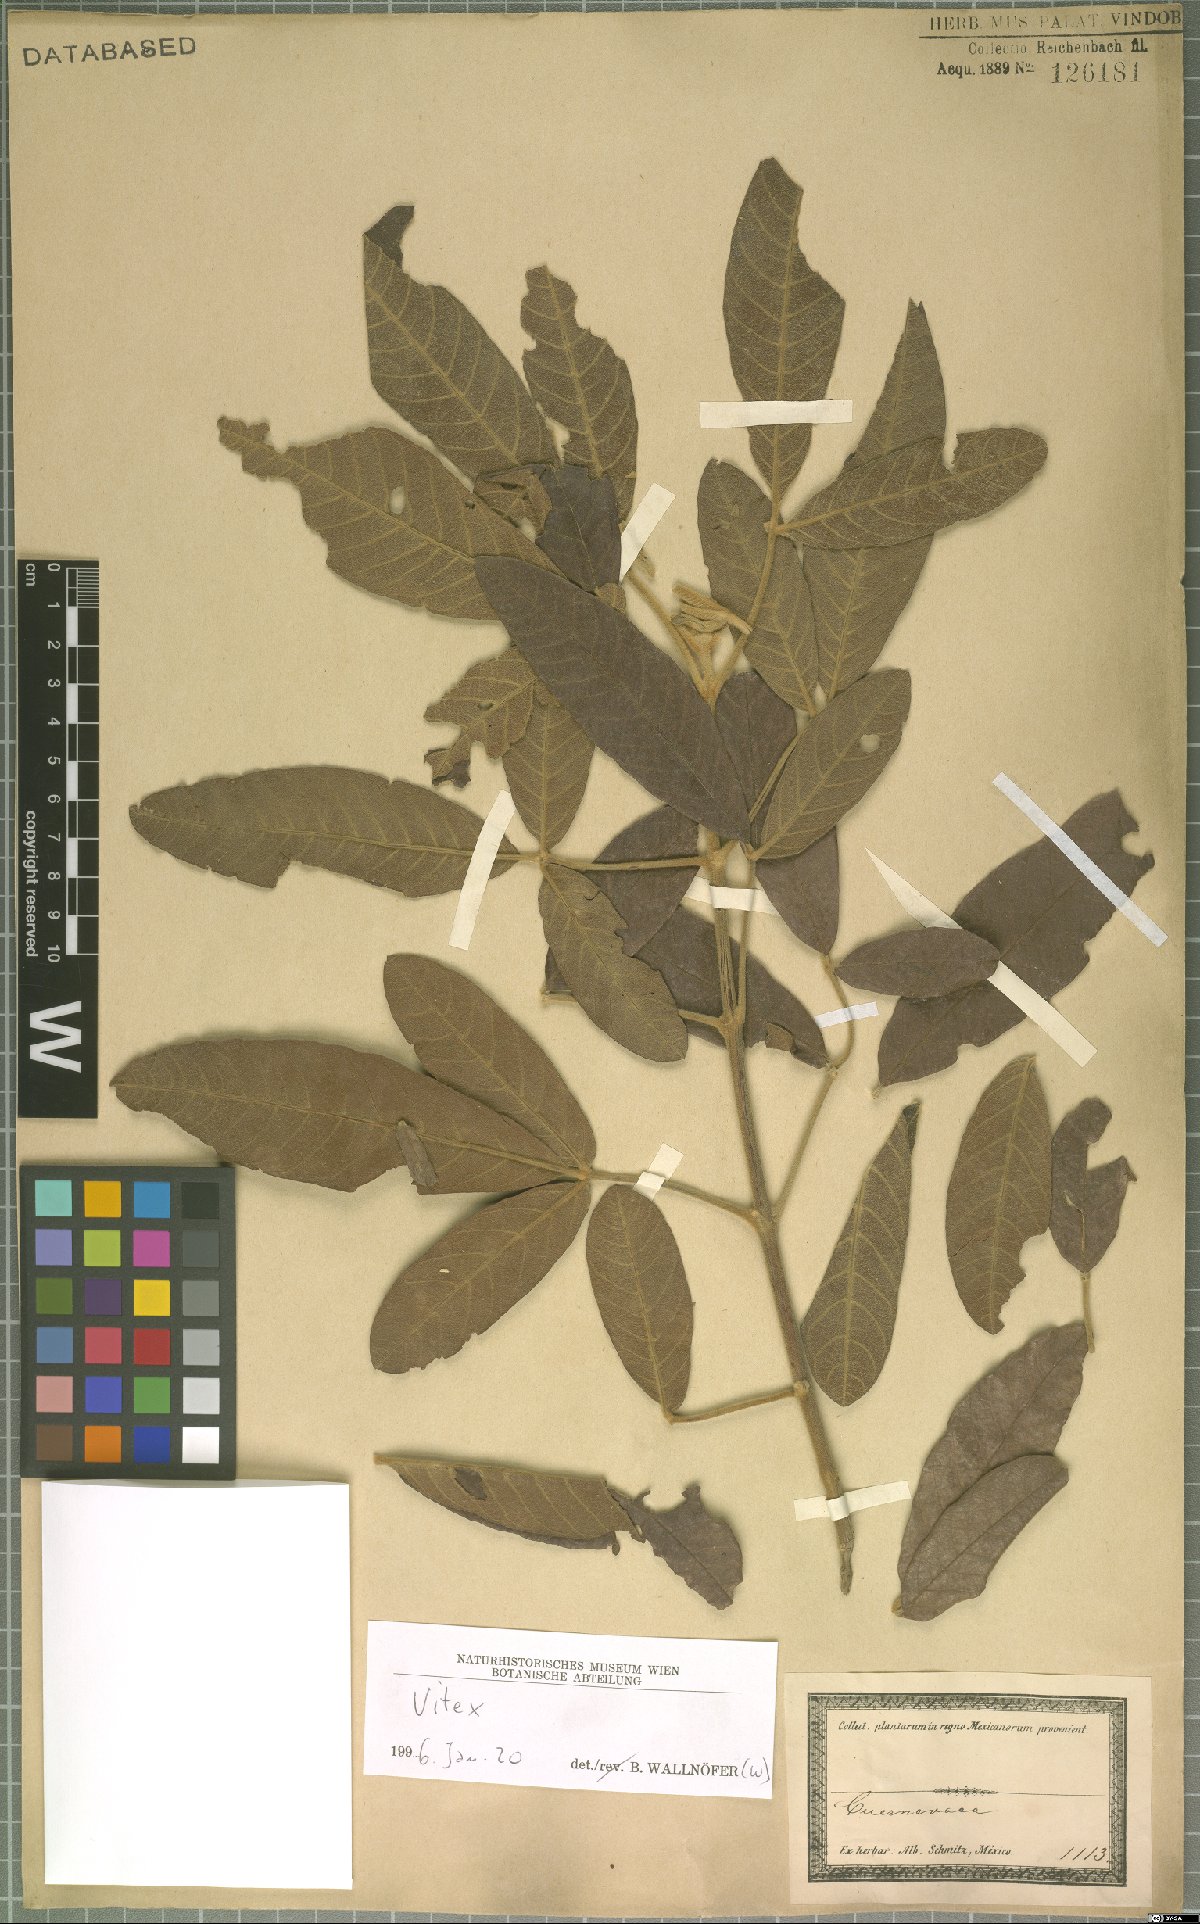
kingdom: Plantae
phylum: Tracheophyta
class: Magnoliopsida
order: Lamiales
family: Lamiaceae
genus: Vitex
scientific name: Vitex
